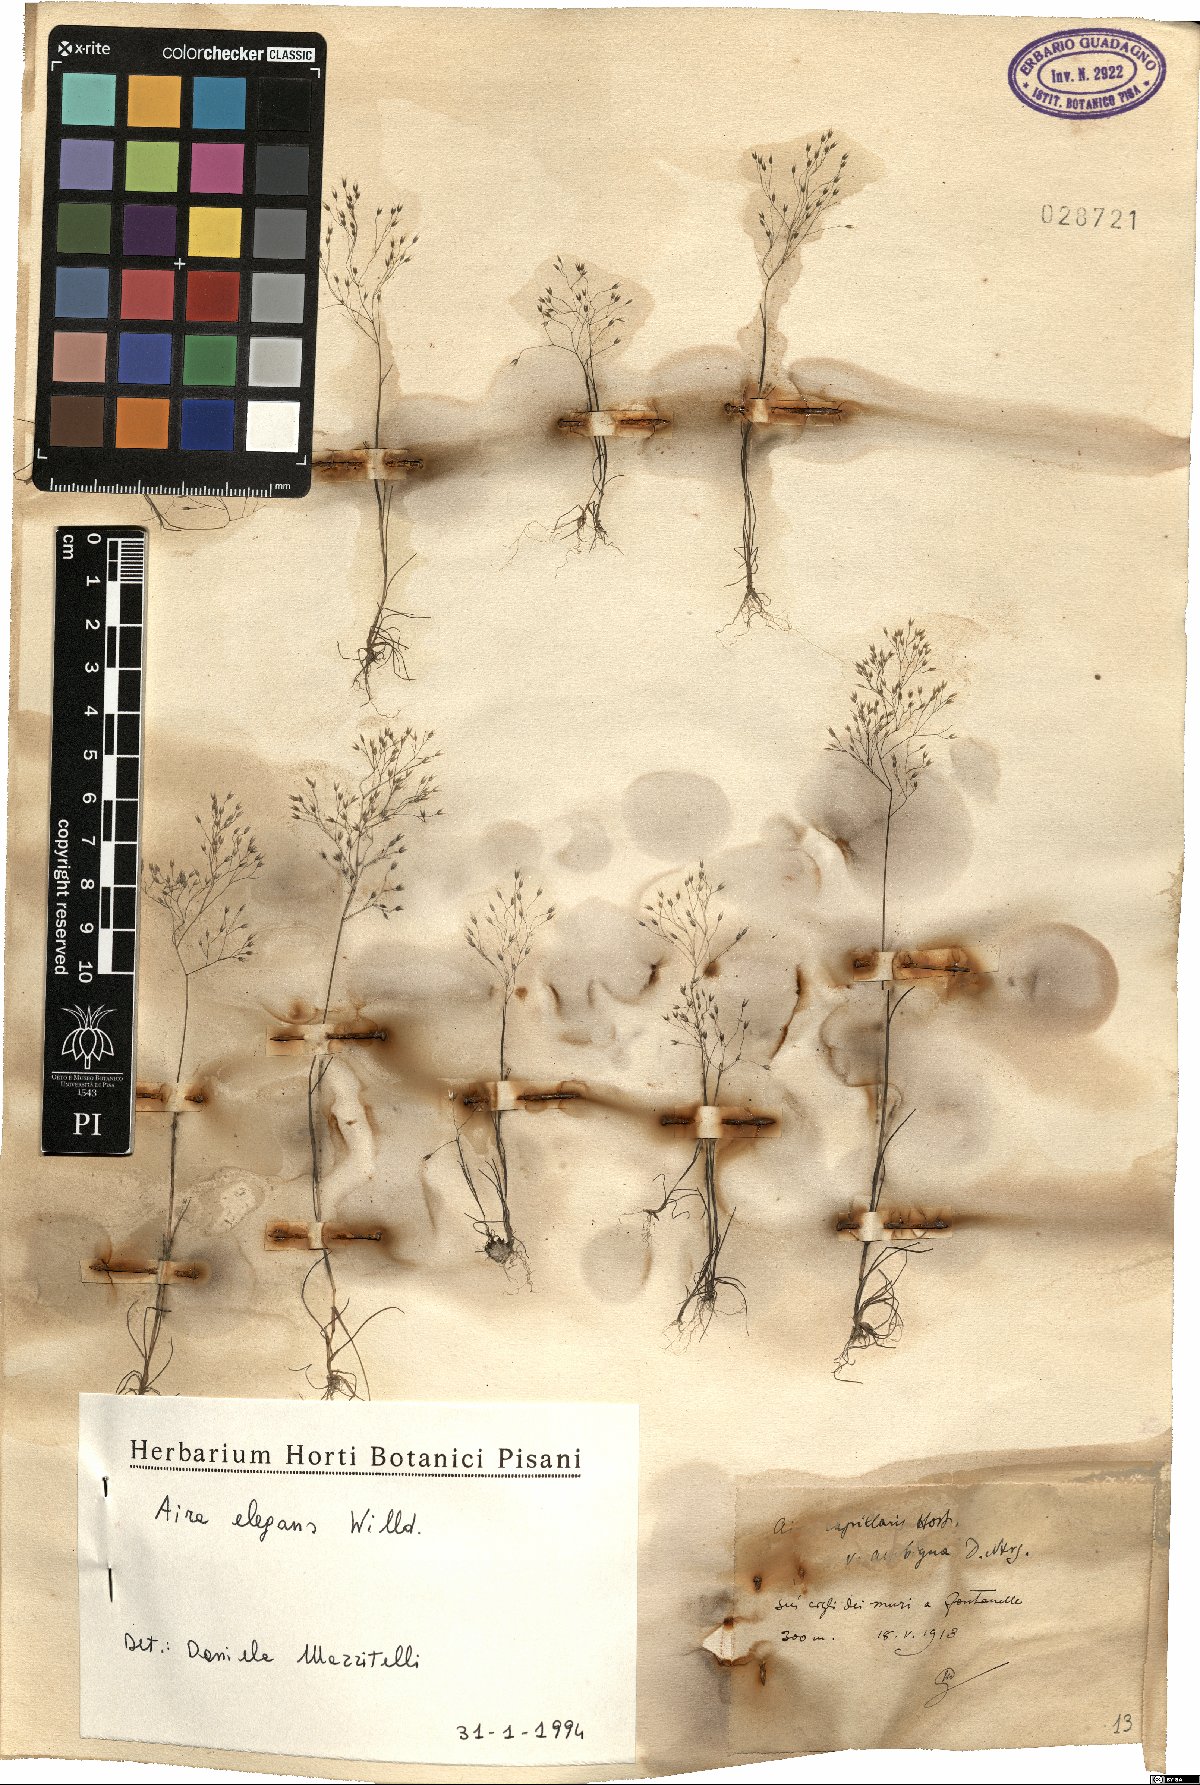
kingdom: Plantae
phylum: Tracheophyta
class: Liliopsida
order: Poales
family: Poaceae
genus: Aira
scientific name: Aira elegans
